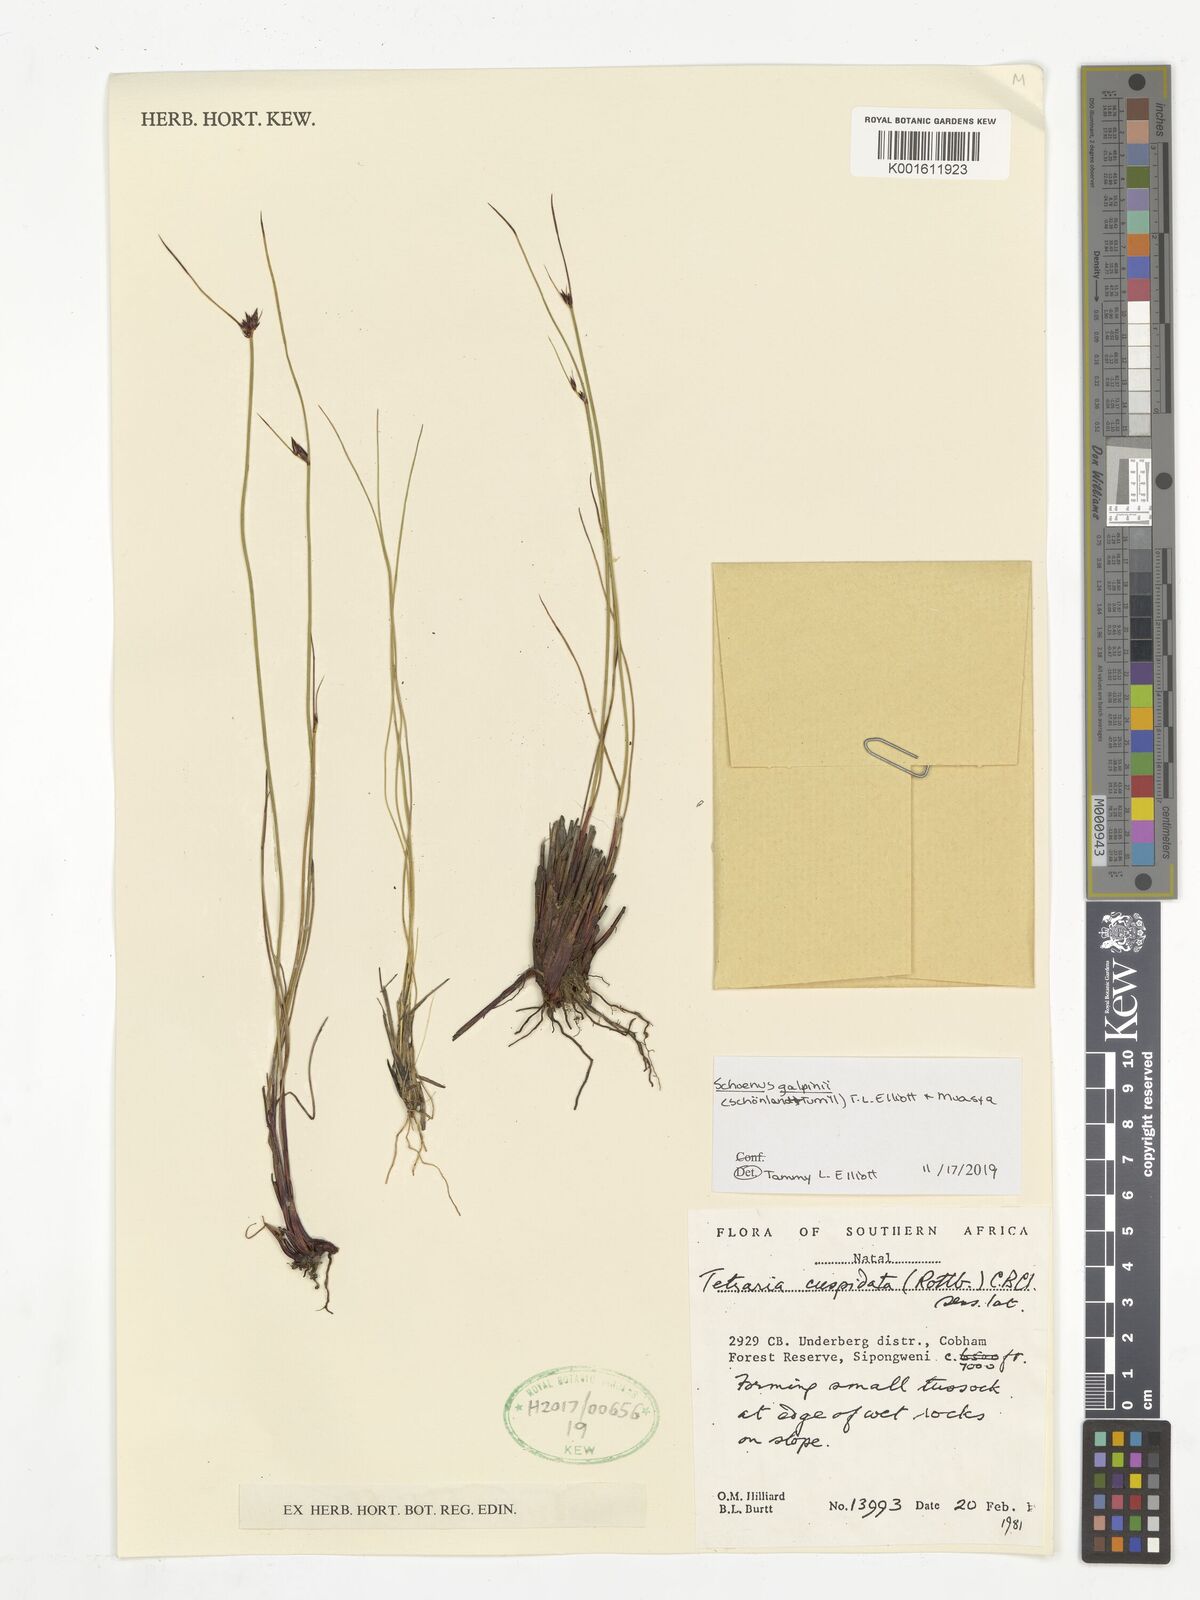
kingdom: Plantae
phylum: Tracheophyta
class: Liliopsida
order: Poales
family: Cyperaceae
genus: Schoenus
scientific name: Schoenus galpinii
